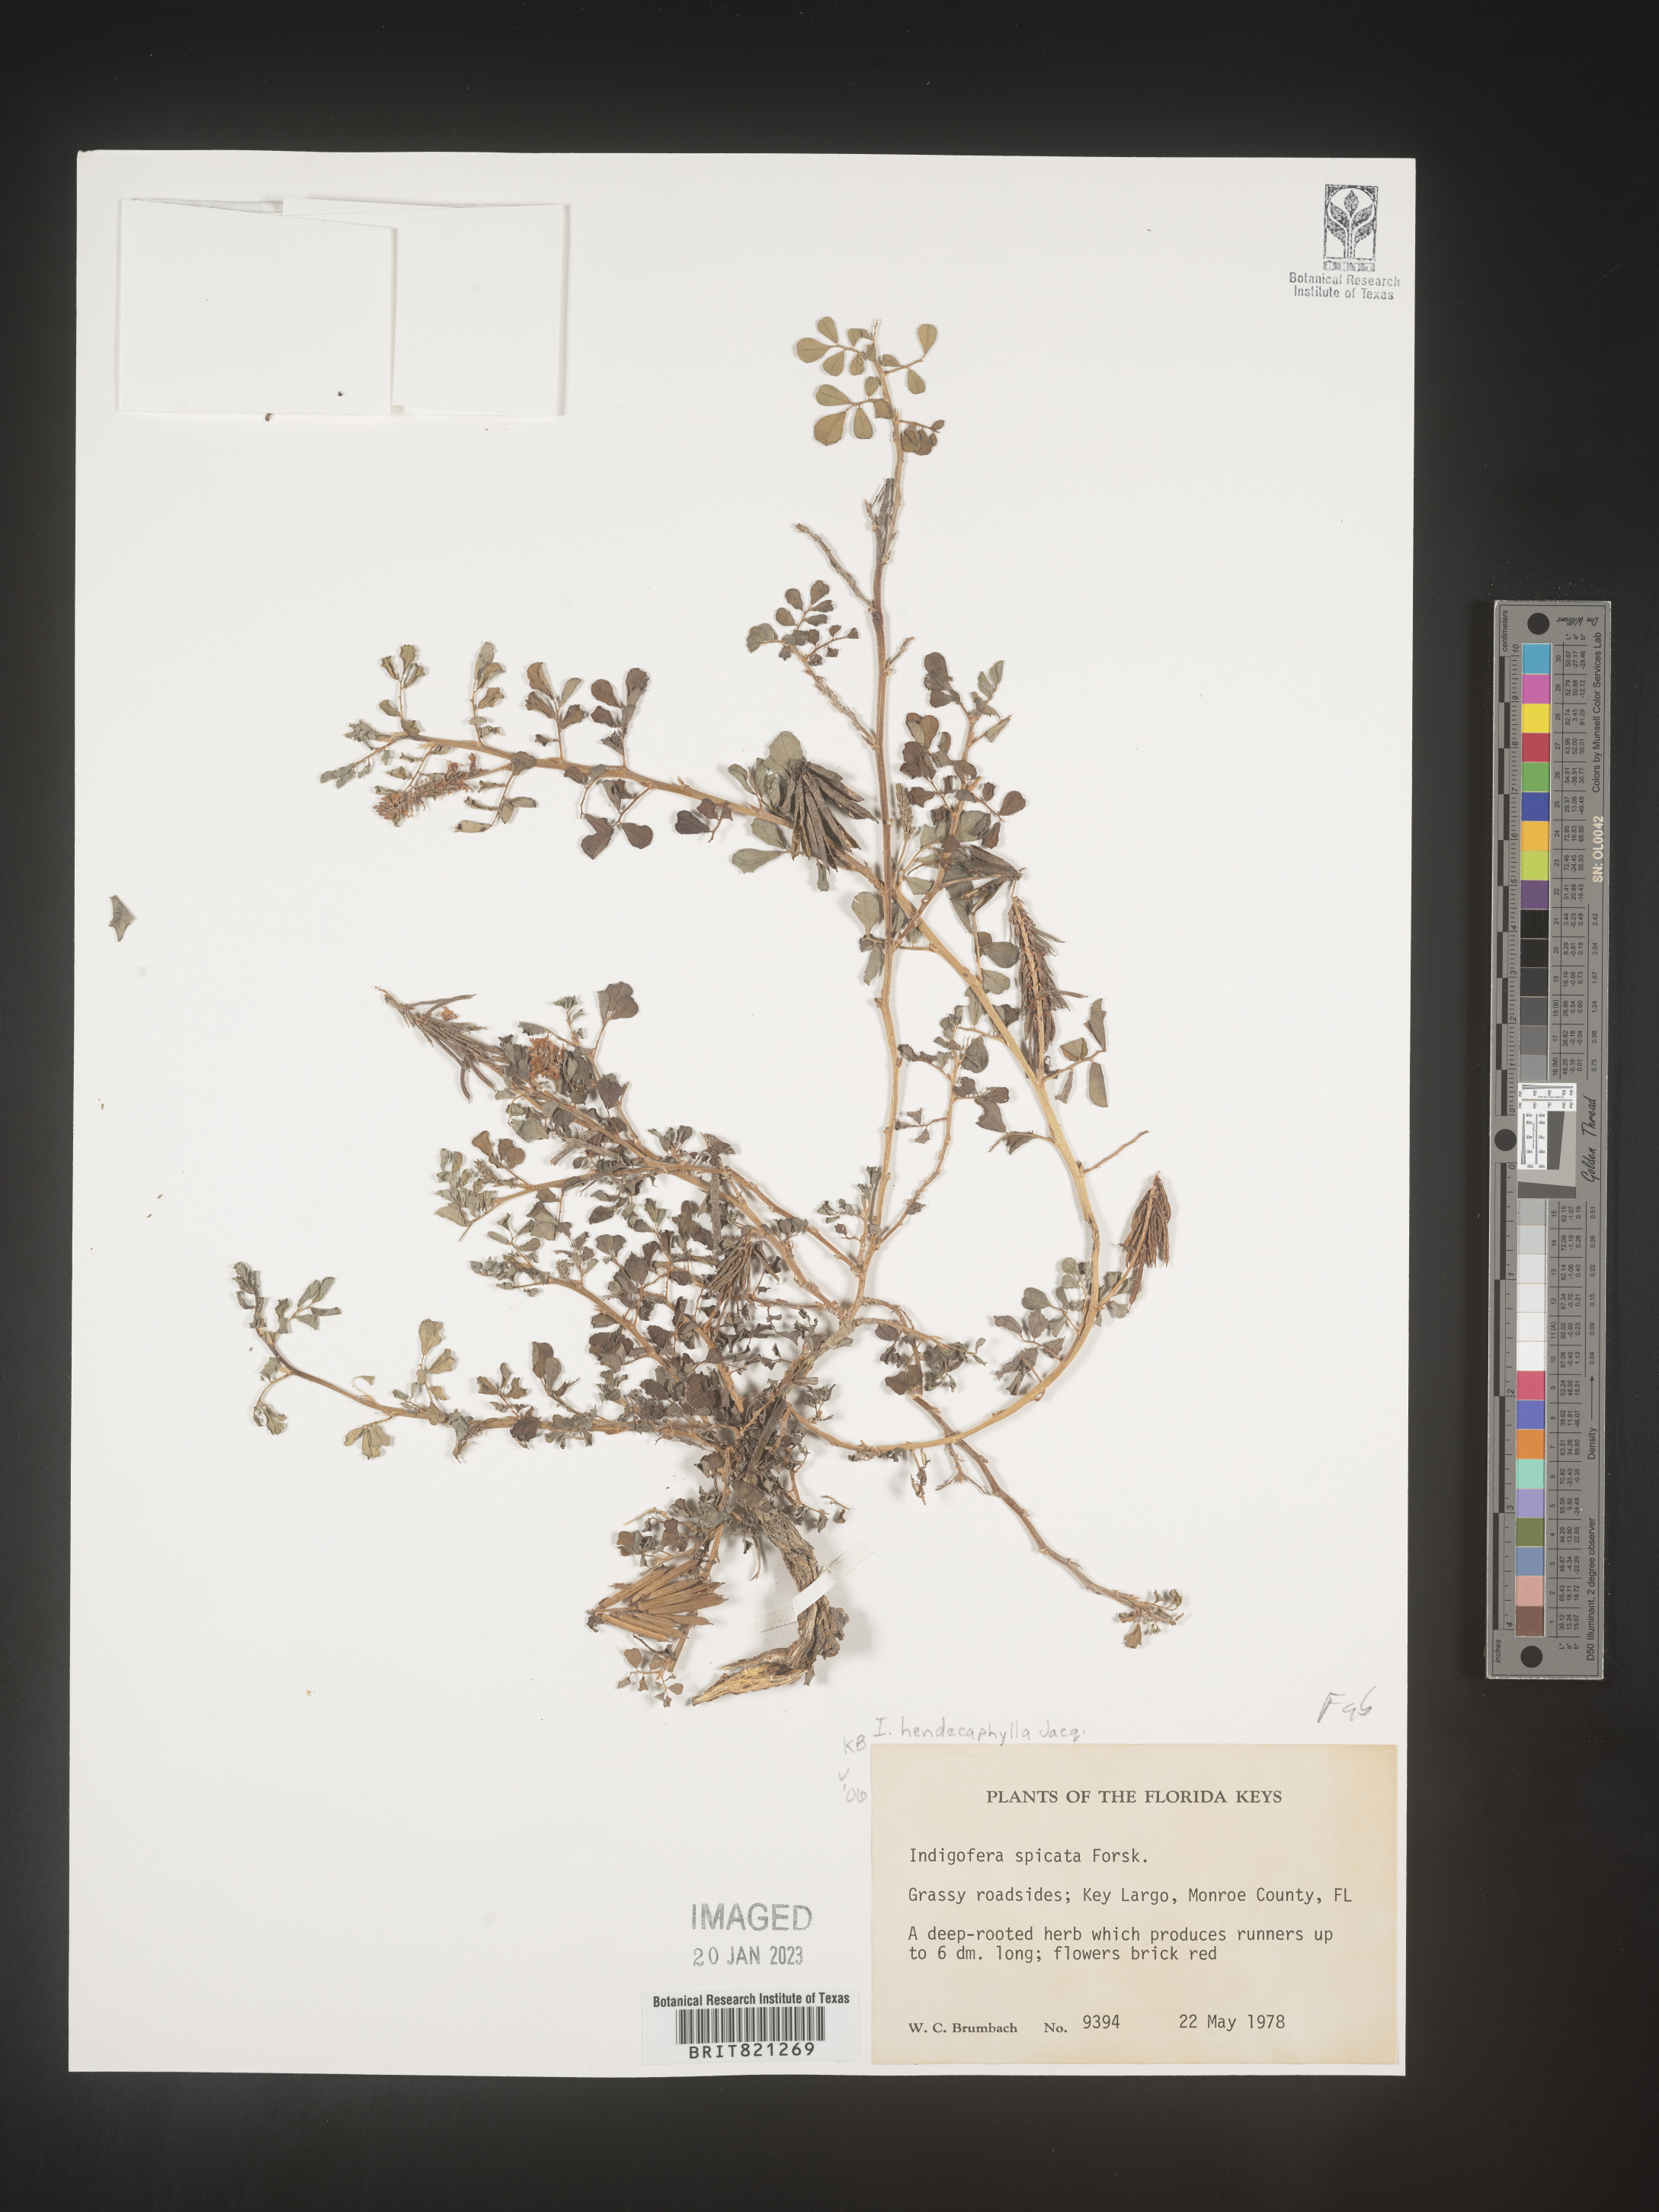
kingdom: Plantae
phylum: Tracheophyta
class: Magnoliopsida
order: Fabales
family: Fabaceae
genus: Indigofera
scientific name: Indigofera
